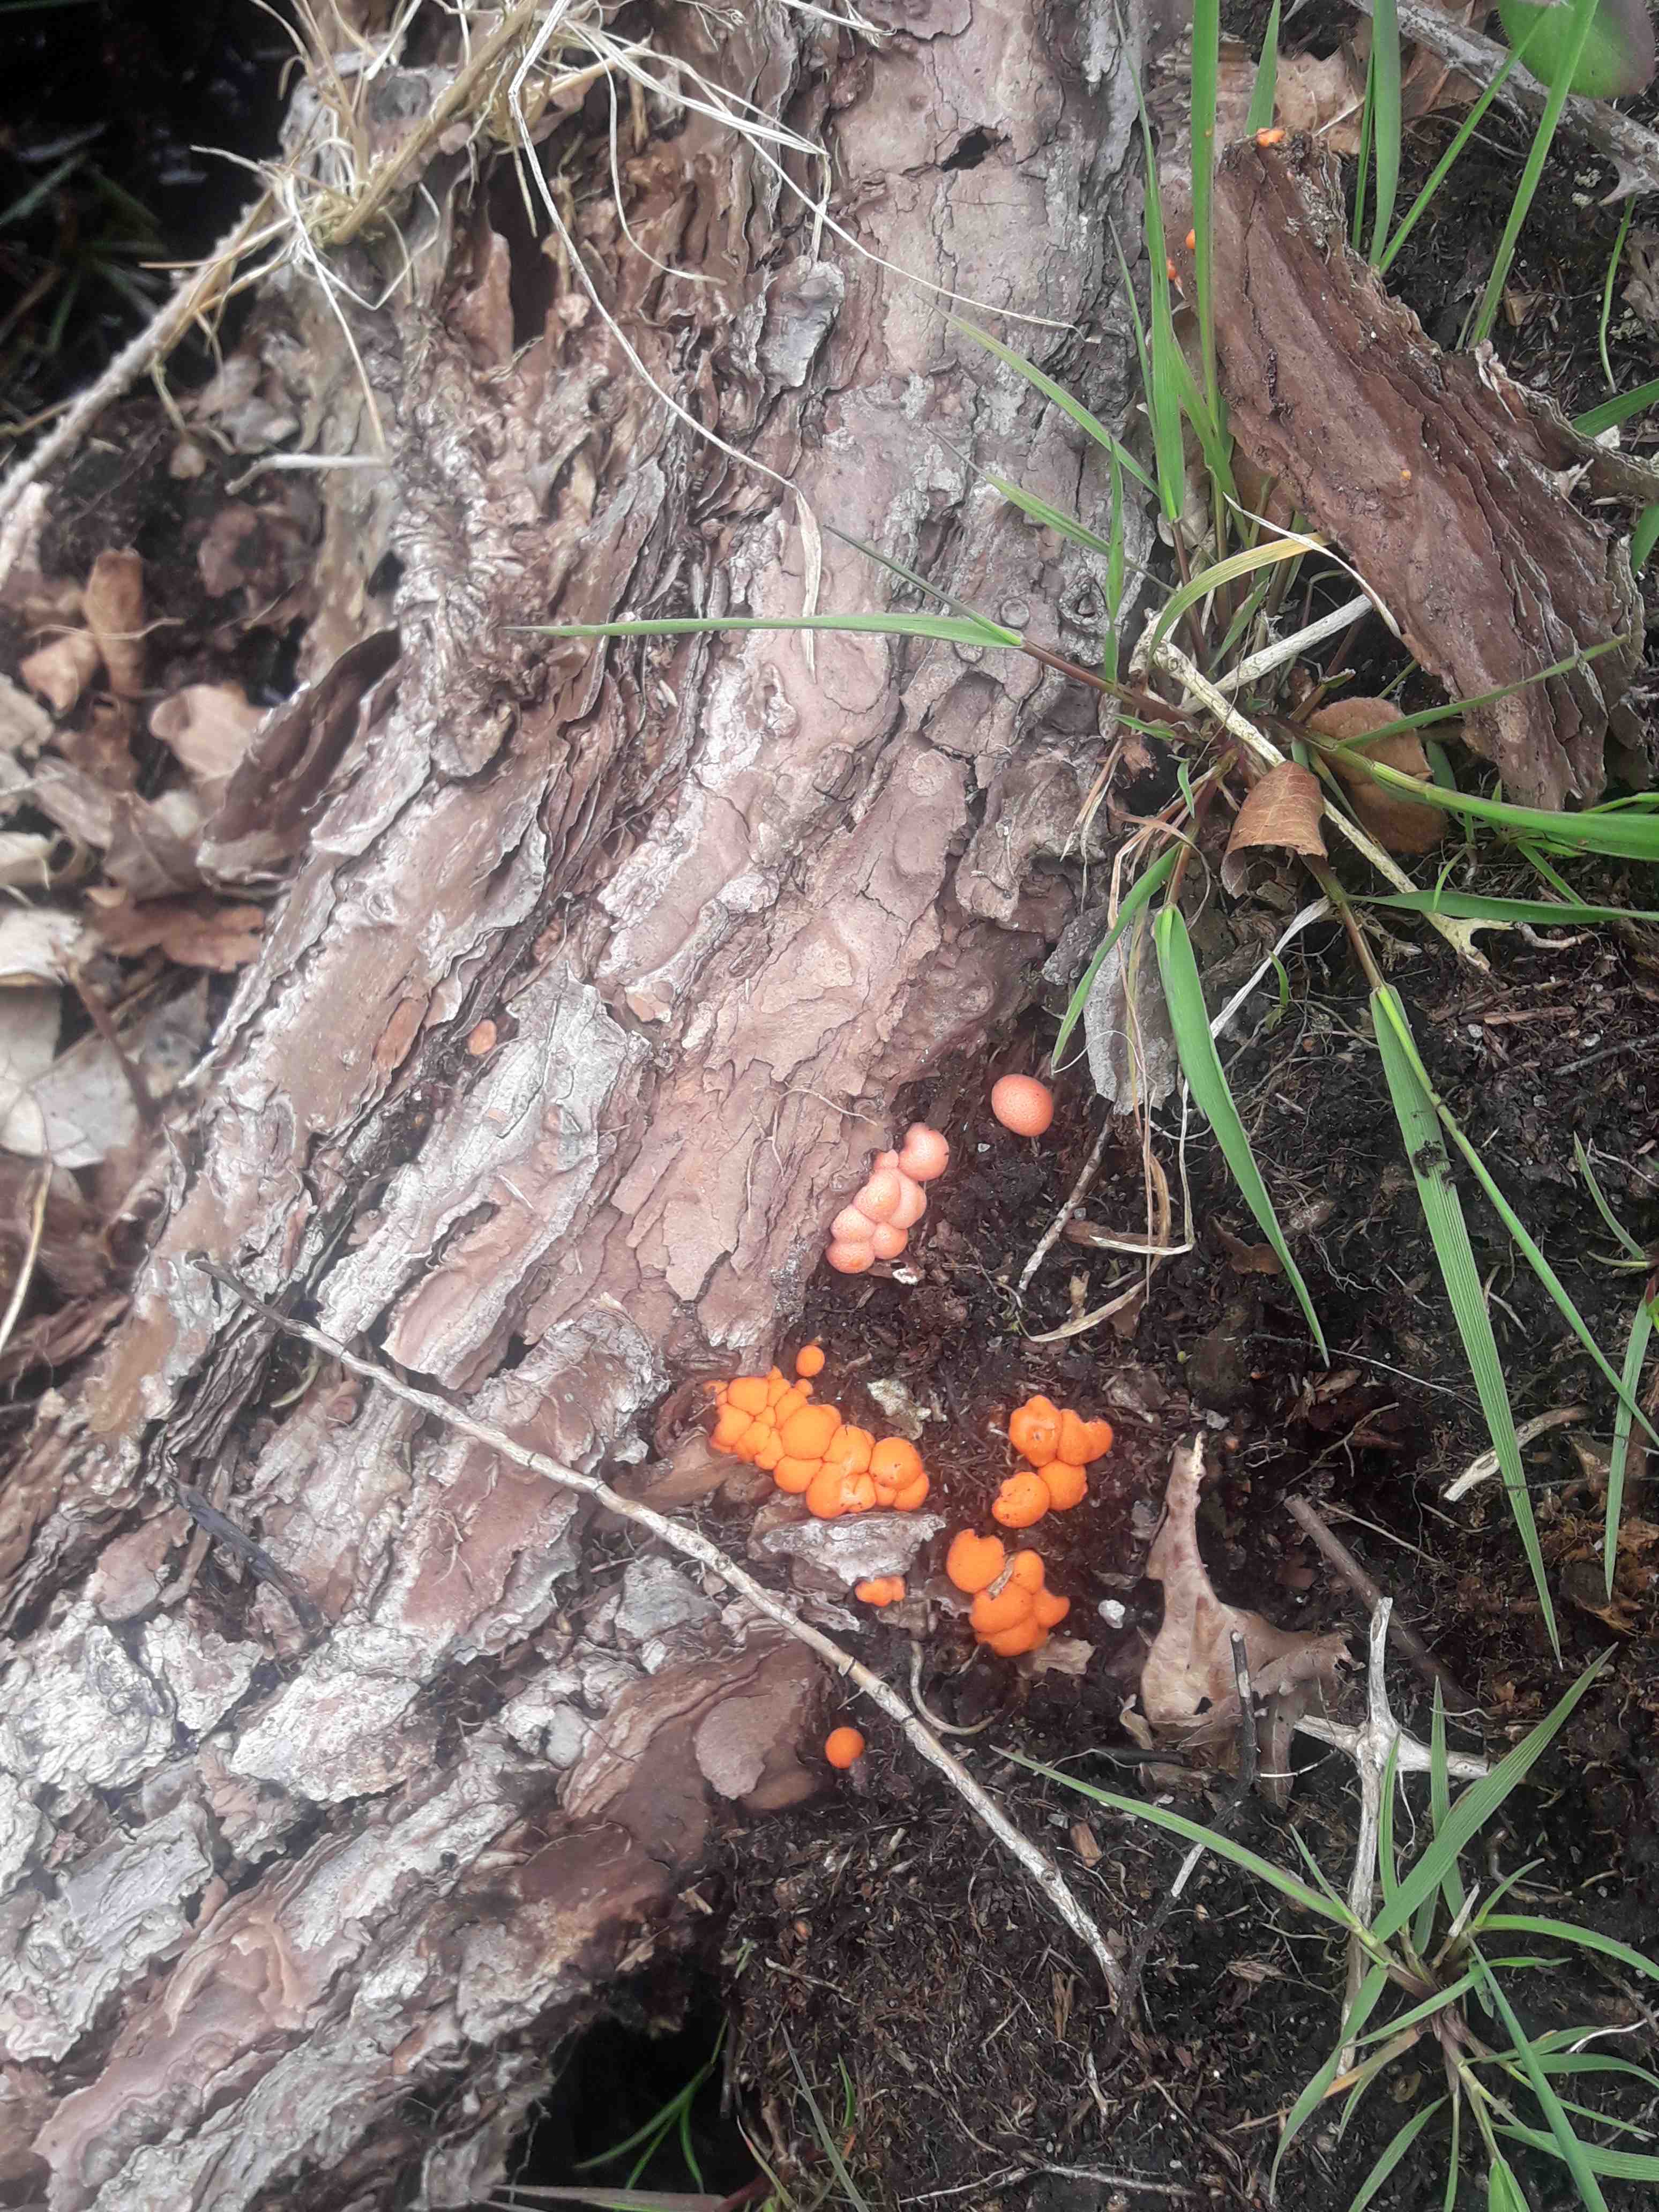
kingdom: Protozoa
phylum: Mycetozoa
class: Myxomycetes
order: Cribrariales
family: Tubiferaceae
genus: Lycogala
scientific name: Lycogala epidendrum
